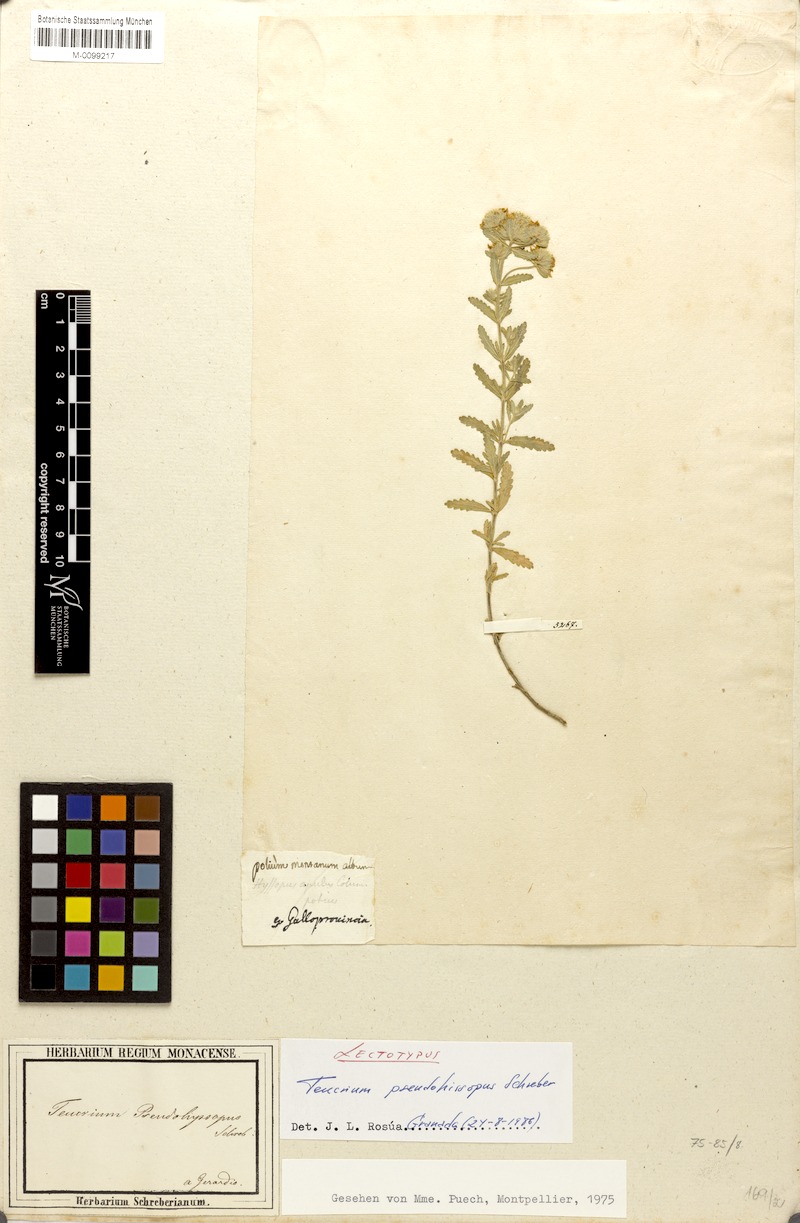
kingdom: Plantae
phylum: Tracheophyta
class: Magnoliopsida
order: Lamiales
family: Lamiaceae
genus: Teucrium
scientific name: Teucrium polium
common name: Poley
